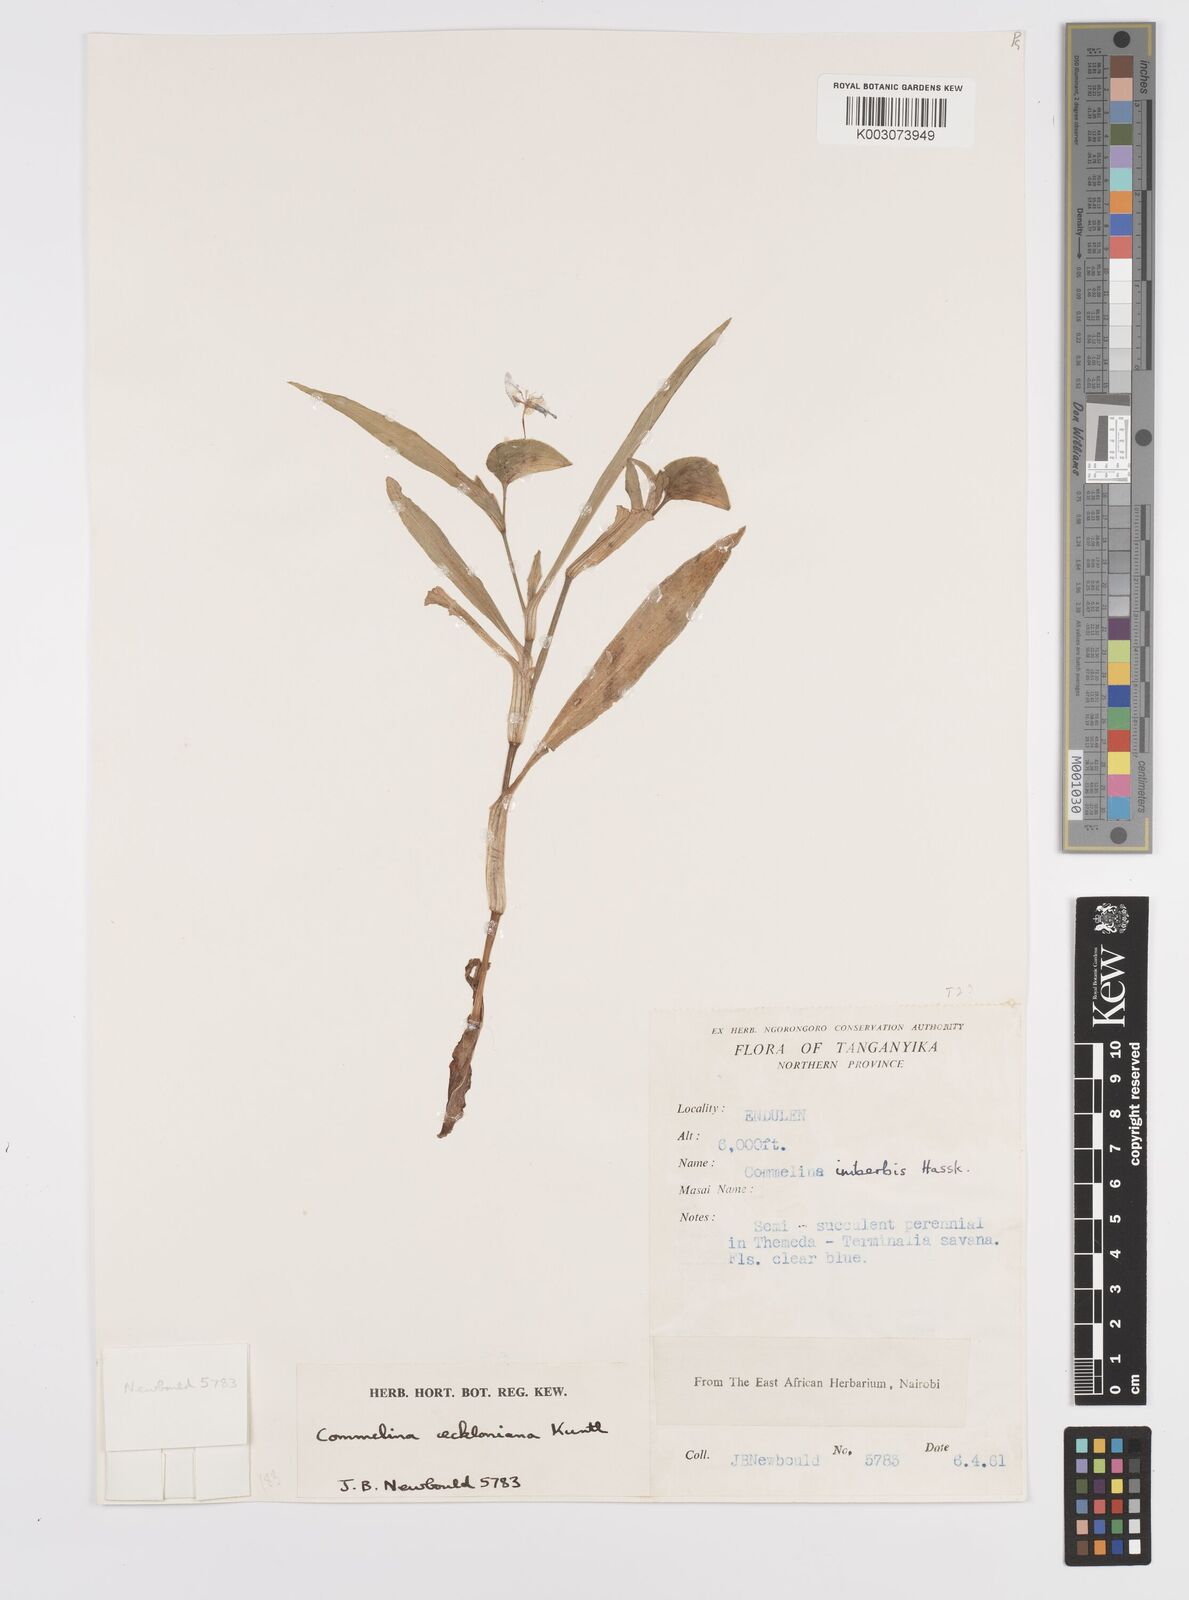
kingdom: Plantae
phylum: Tracheophyta
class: Liliopsida
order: Commelinales
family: Commelinaceae
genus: Commelina
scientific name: Commelina eckloniana
